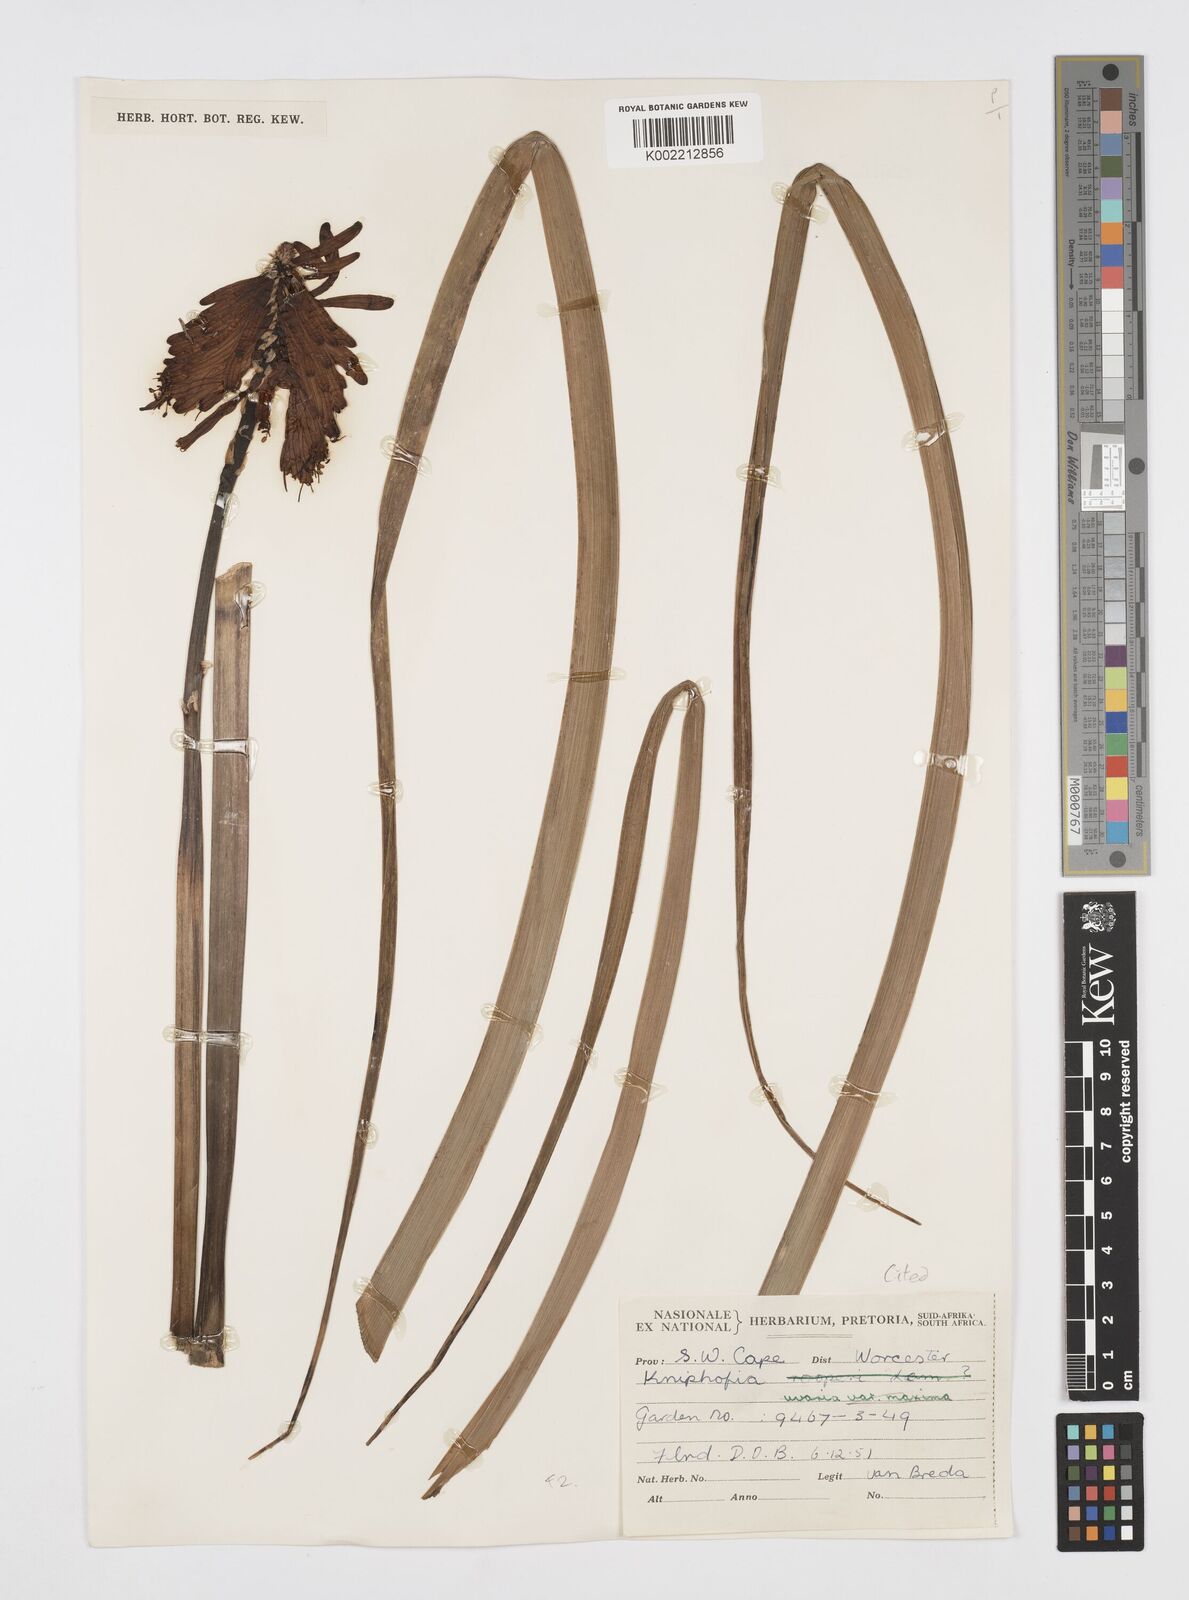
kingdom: Plantae
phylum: Tracheophyta
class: Liliopsida
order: Asparagales
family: Asphodelaceae
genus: Kniphofia
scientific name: Kniphofia uvaria
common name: Red-hot-poker
